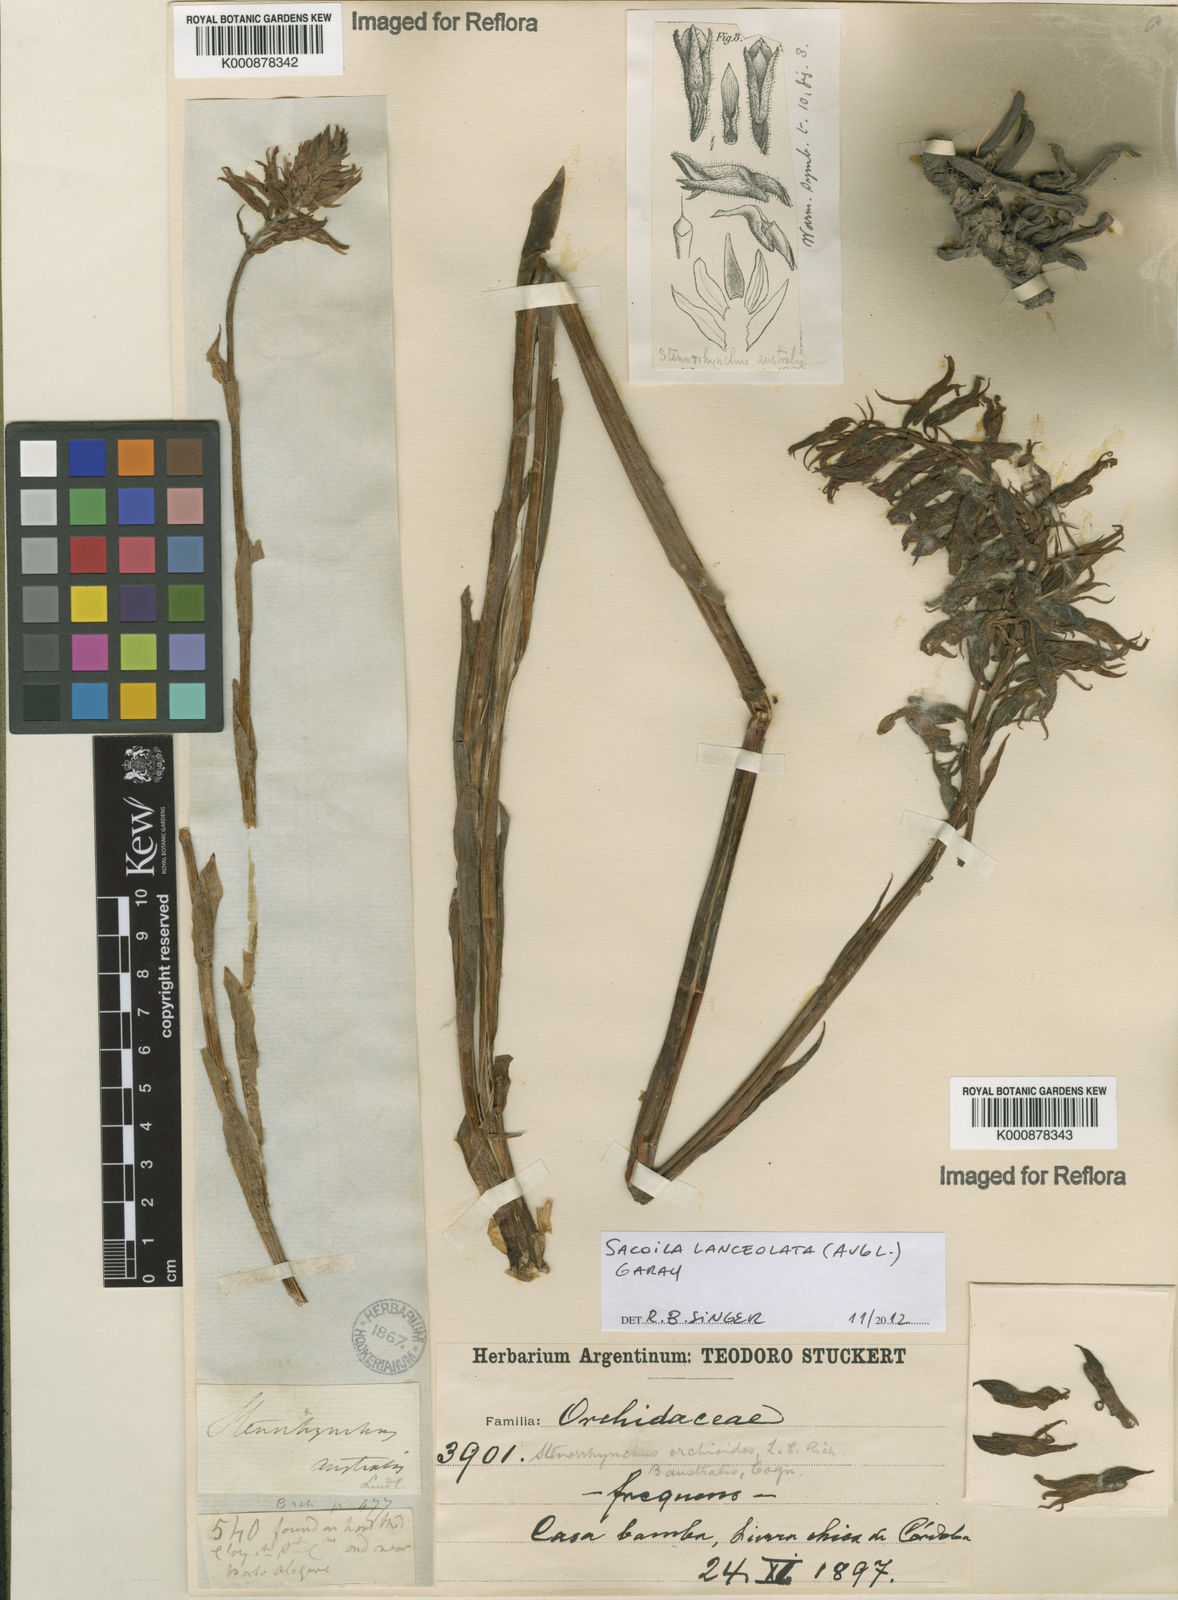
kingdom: Plantae
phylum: Tracheophyta
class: Liliopsida
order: Asparagales
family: Orchidaceae
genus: Sacoila
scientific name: Sacoila lanceolata
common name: Leafless beaked ladiestresses
